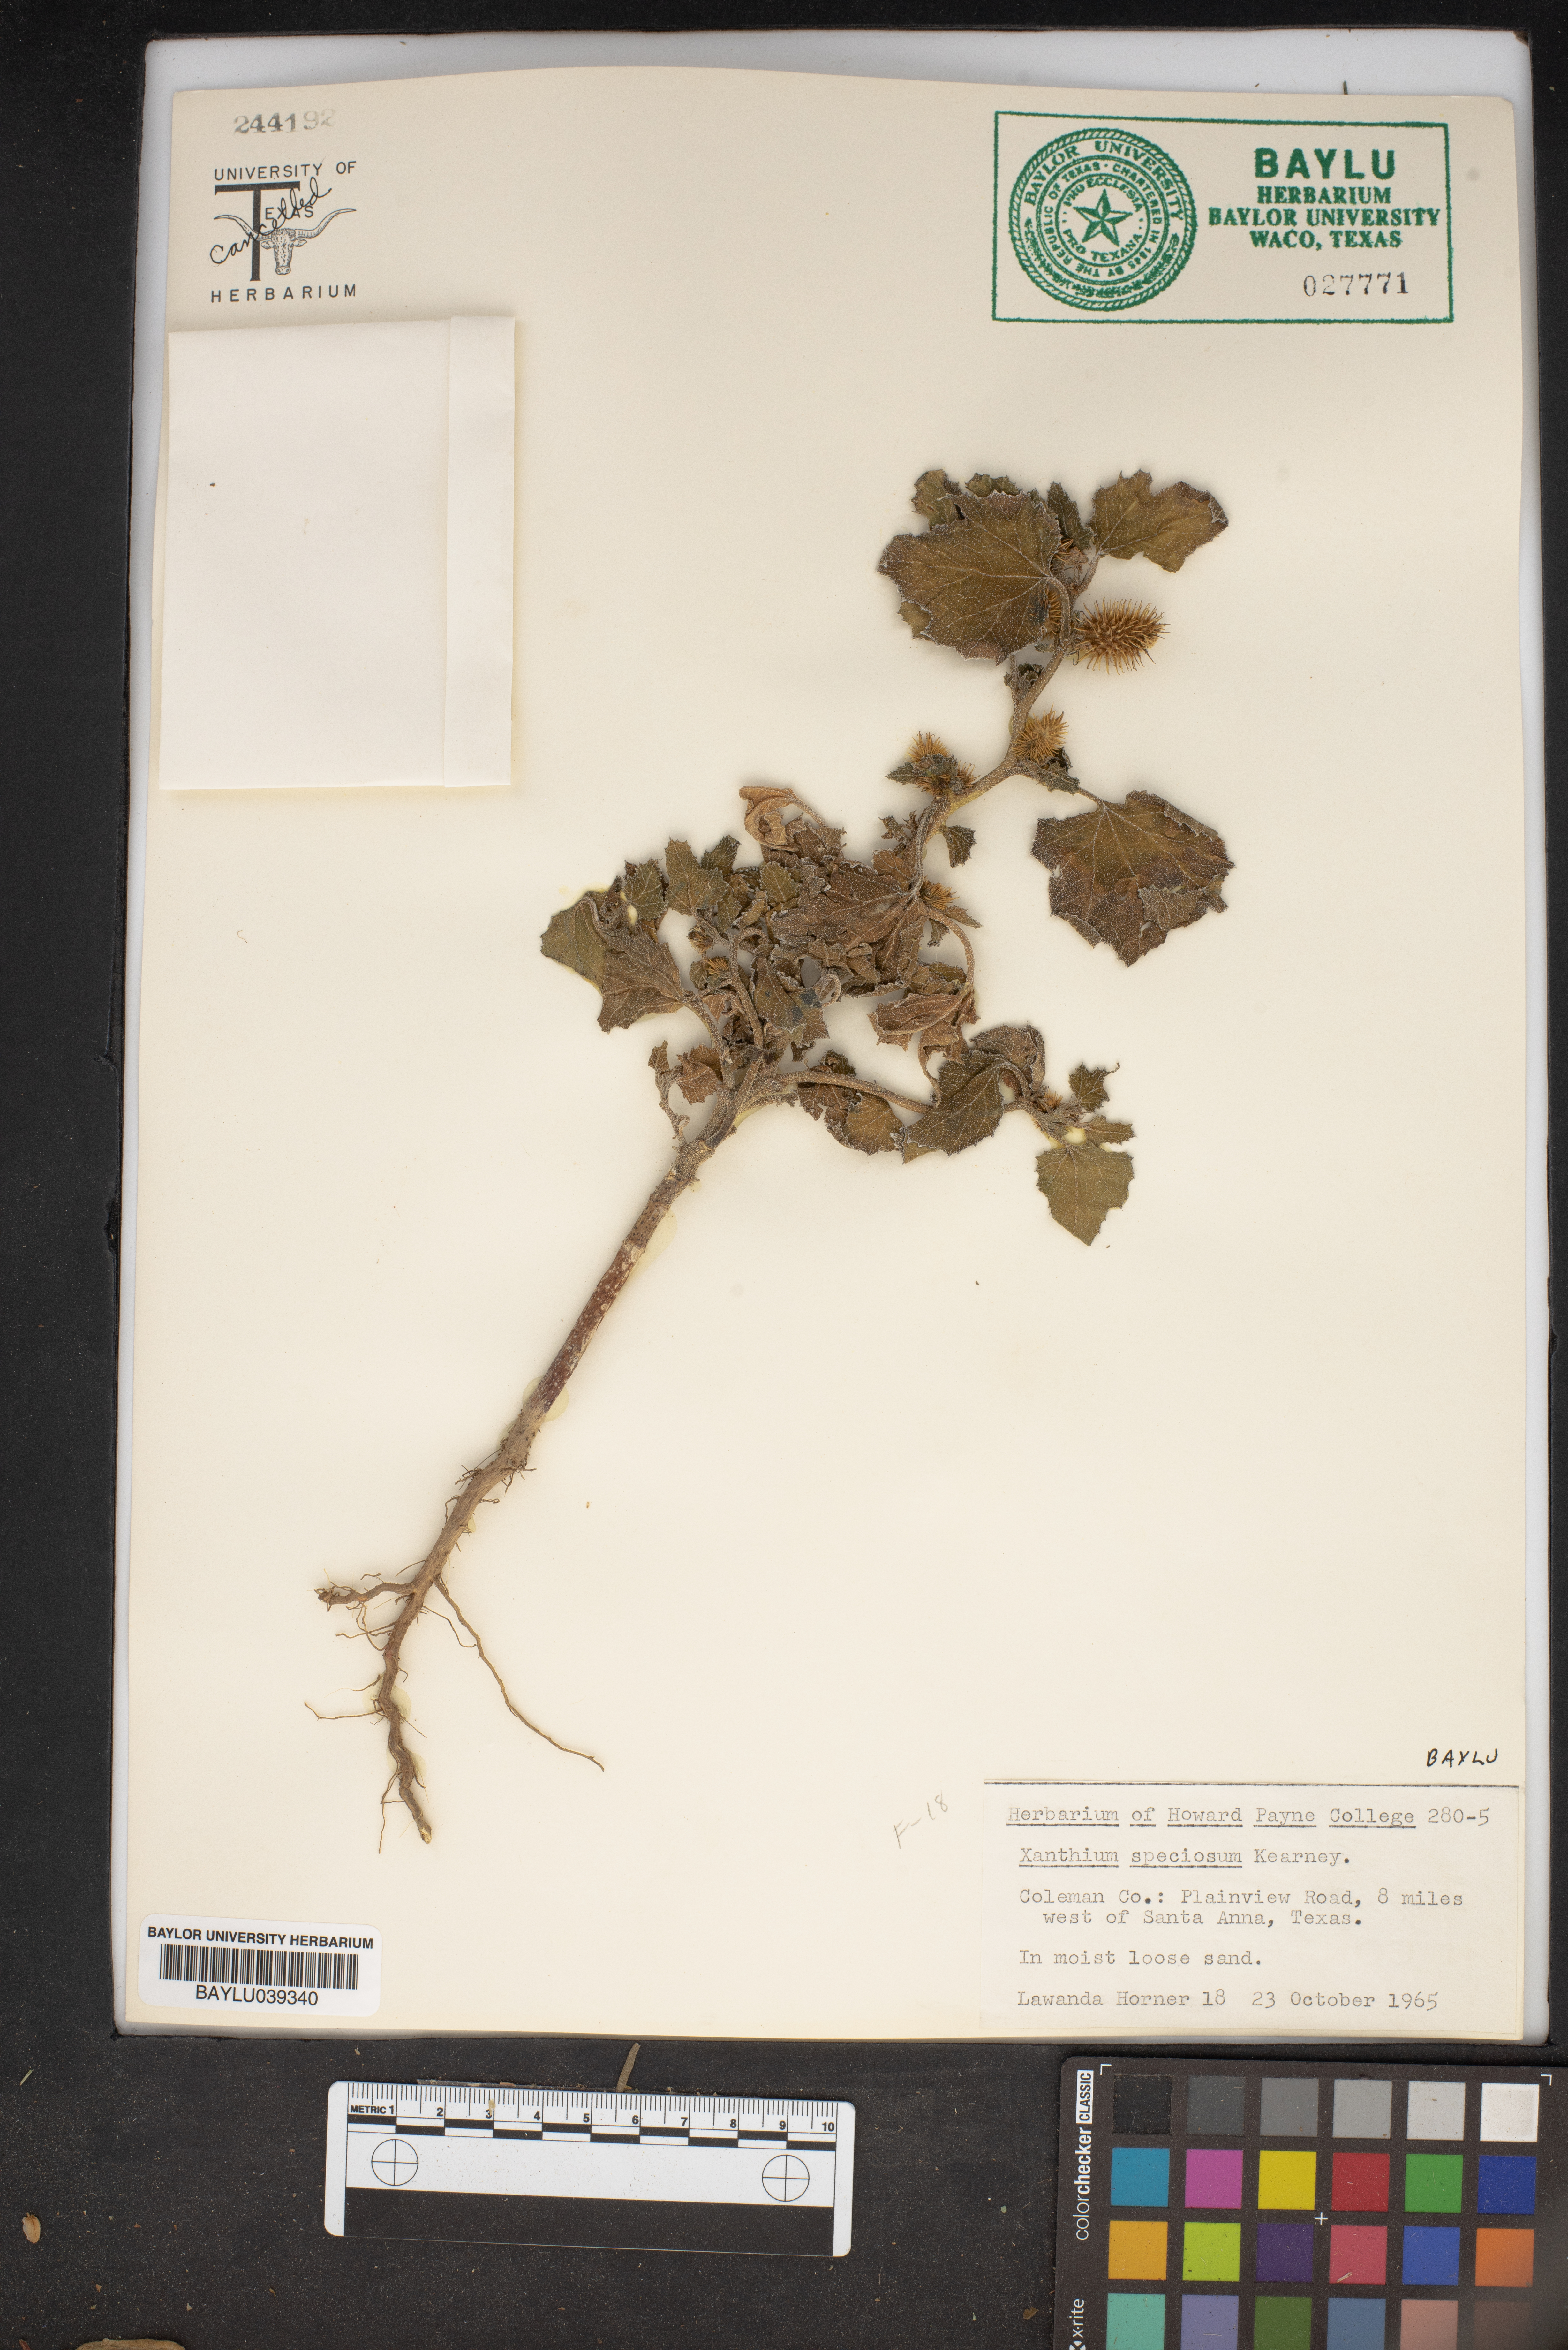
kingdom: Plantae
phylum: Tracheophyta
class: Magnoliopsida
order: Asterales
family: Asteraceae
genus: Xanthium
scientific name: Xanthium orientale
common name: Californian burr
